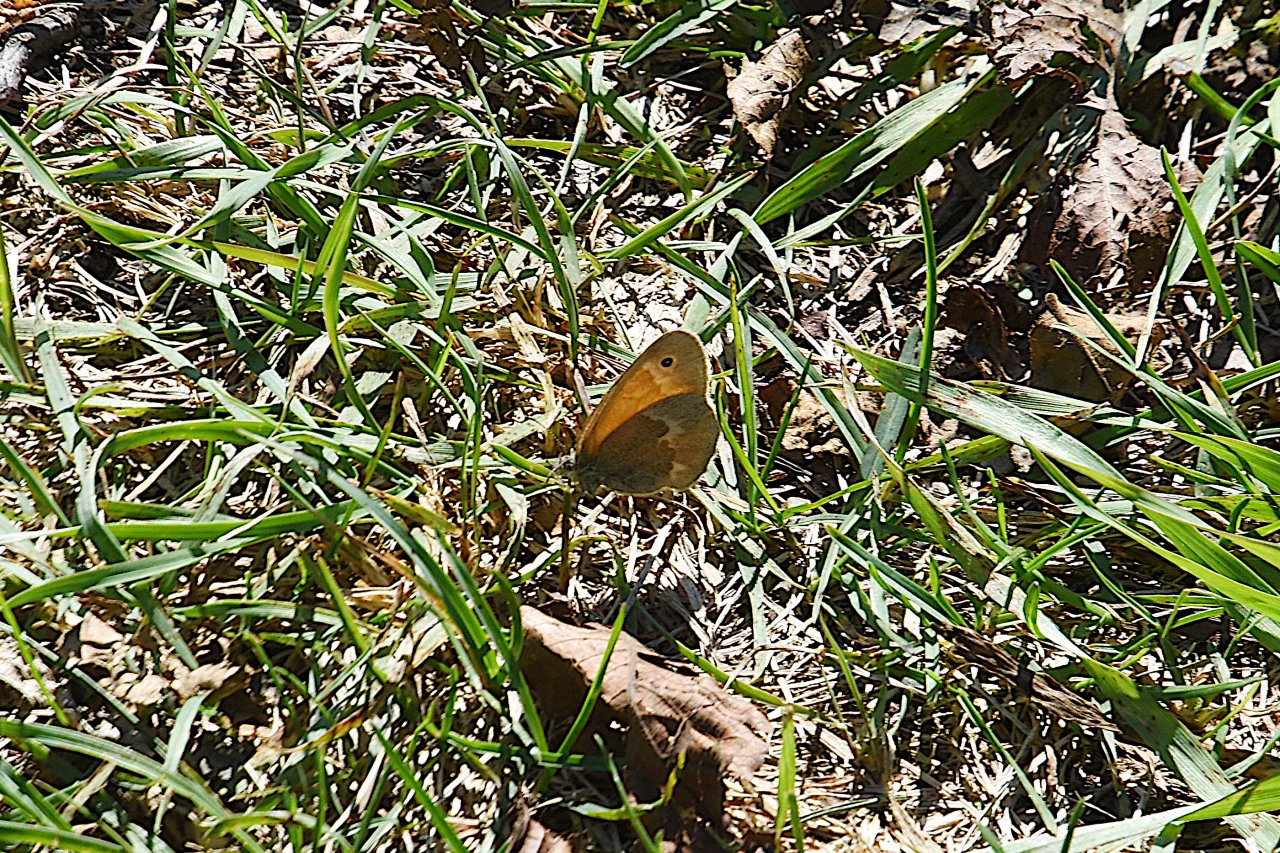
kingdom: Animalia
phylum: Arthropoda
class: Insecta
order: Lepidoptera
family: Nymphalidae
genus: Coenonympha
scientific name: Coenonympha tullia
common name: Large Heath
